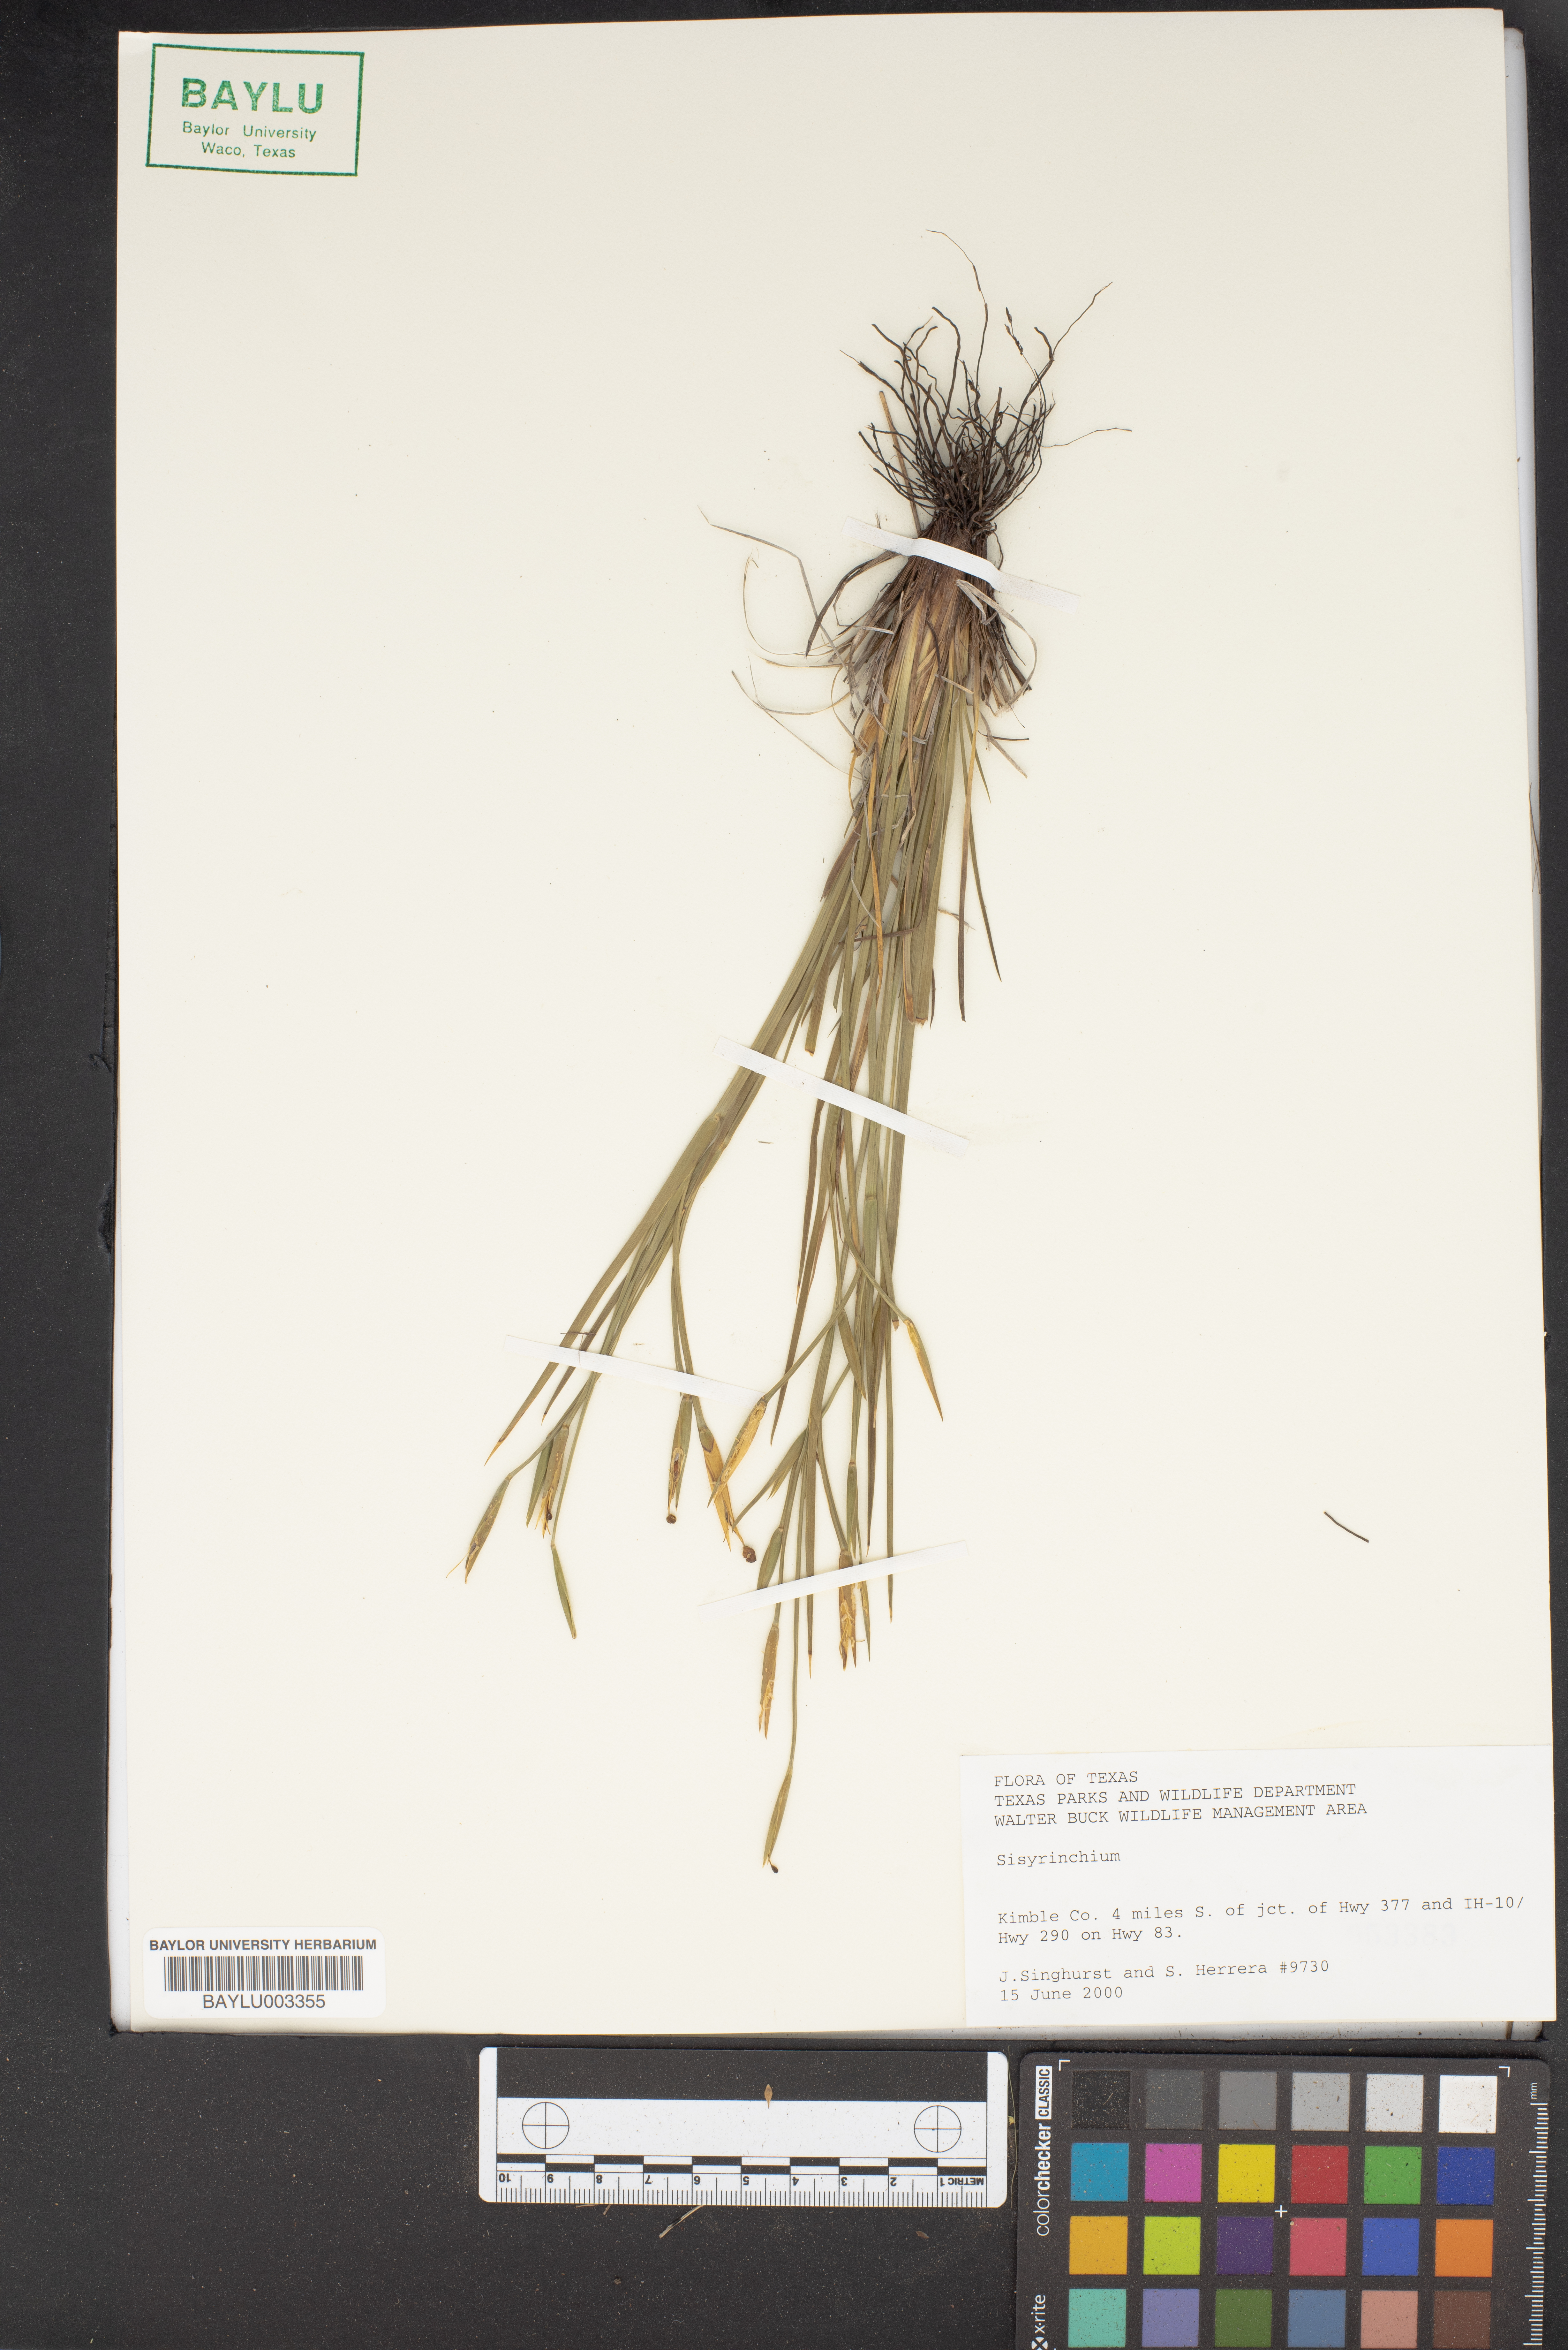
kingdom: Plantae
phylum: Tracheophyta
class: Liliopsida
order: Asparagales
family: Iridaceae
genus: Sisyrinchium
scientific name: Sisyrinchium
